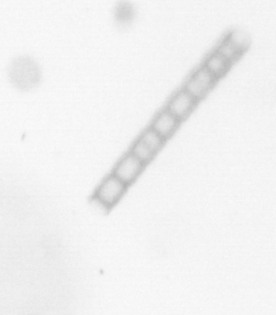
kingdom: Chromista
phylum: Ochrophyta
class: Bacillariophyceae
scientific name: Bacillariophyceae
